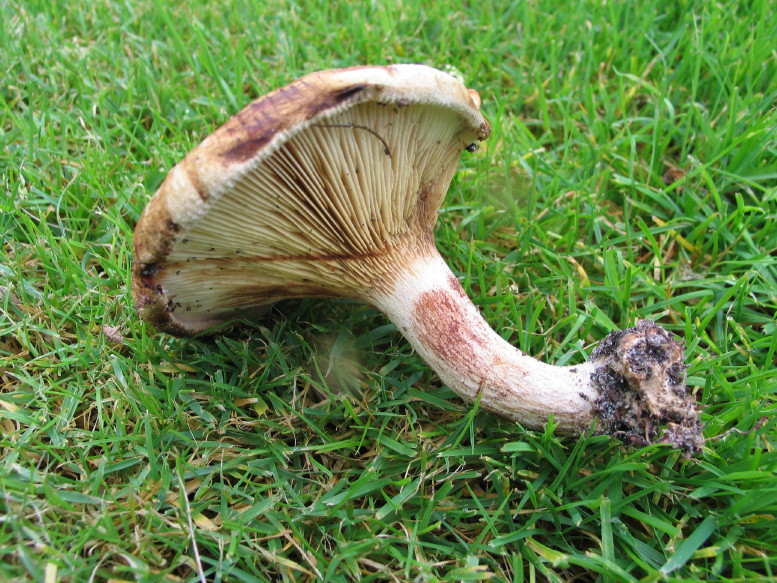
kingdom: Fungi
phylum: Basidiomycota
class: Agaricomycetes
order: Boletales
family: Paxillaceae
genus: Paxillus
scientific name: Paxillus involutus
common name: almindelig netbladhat
